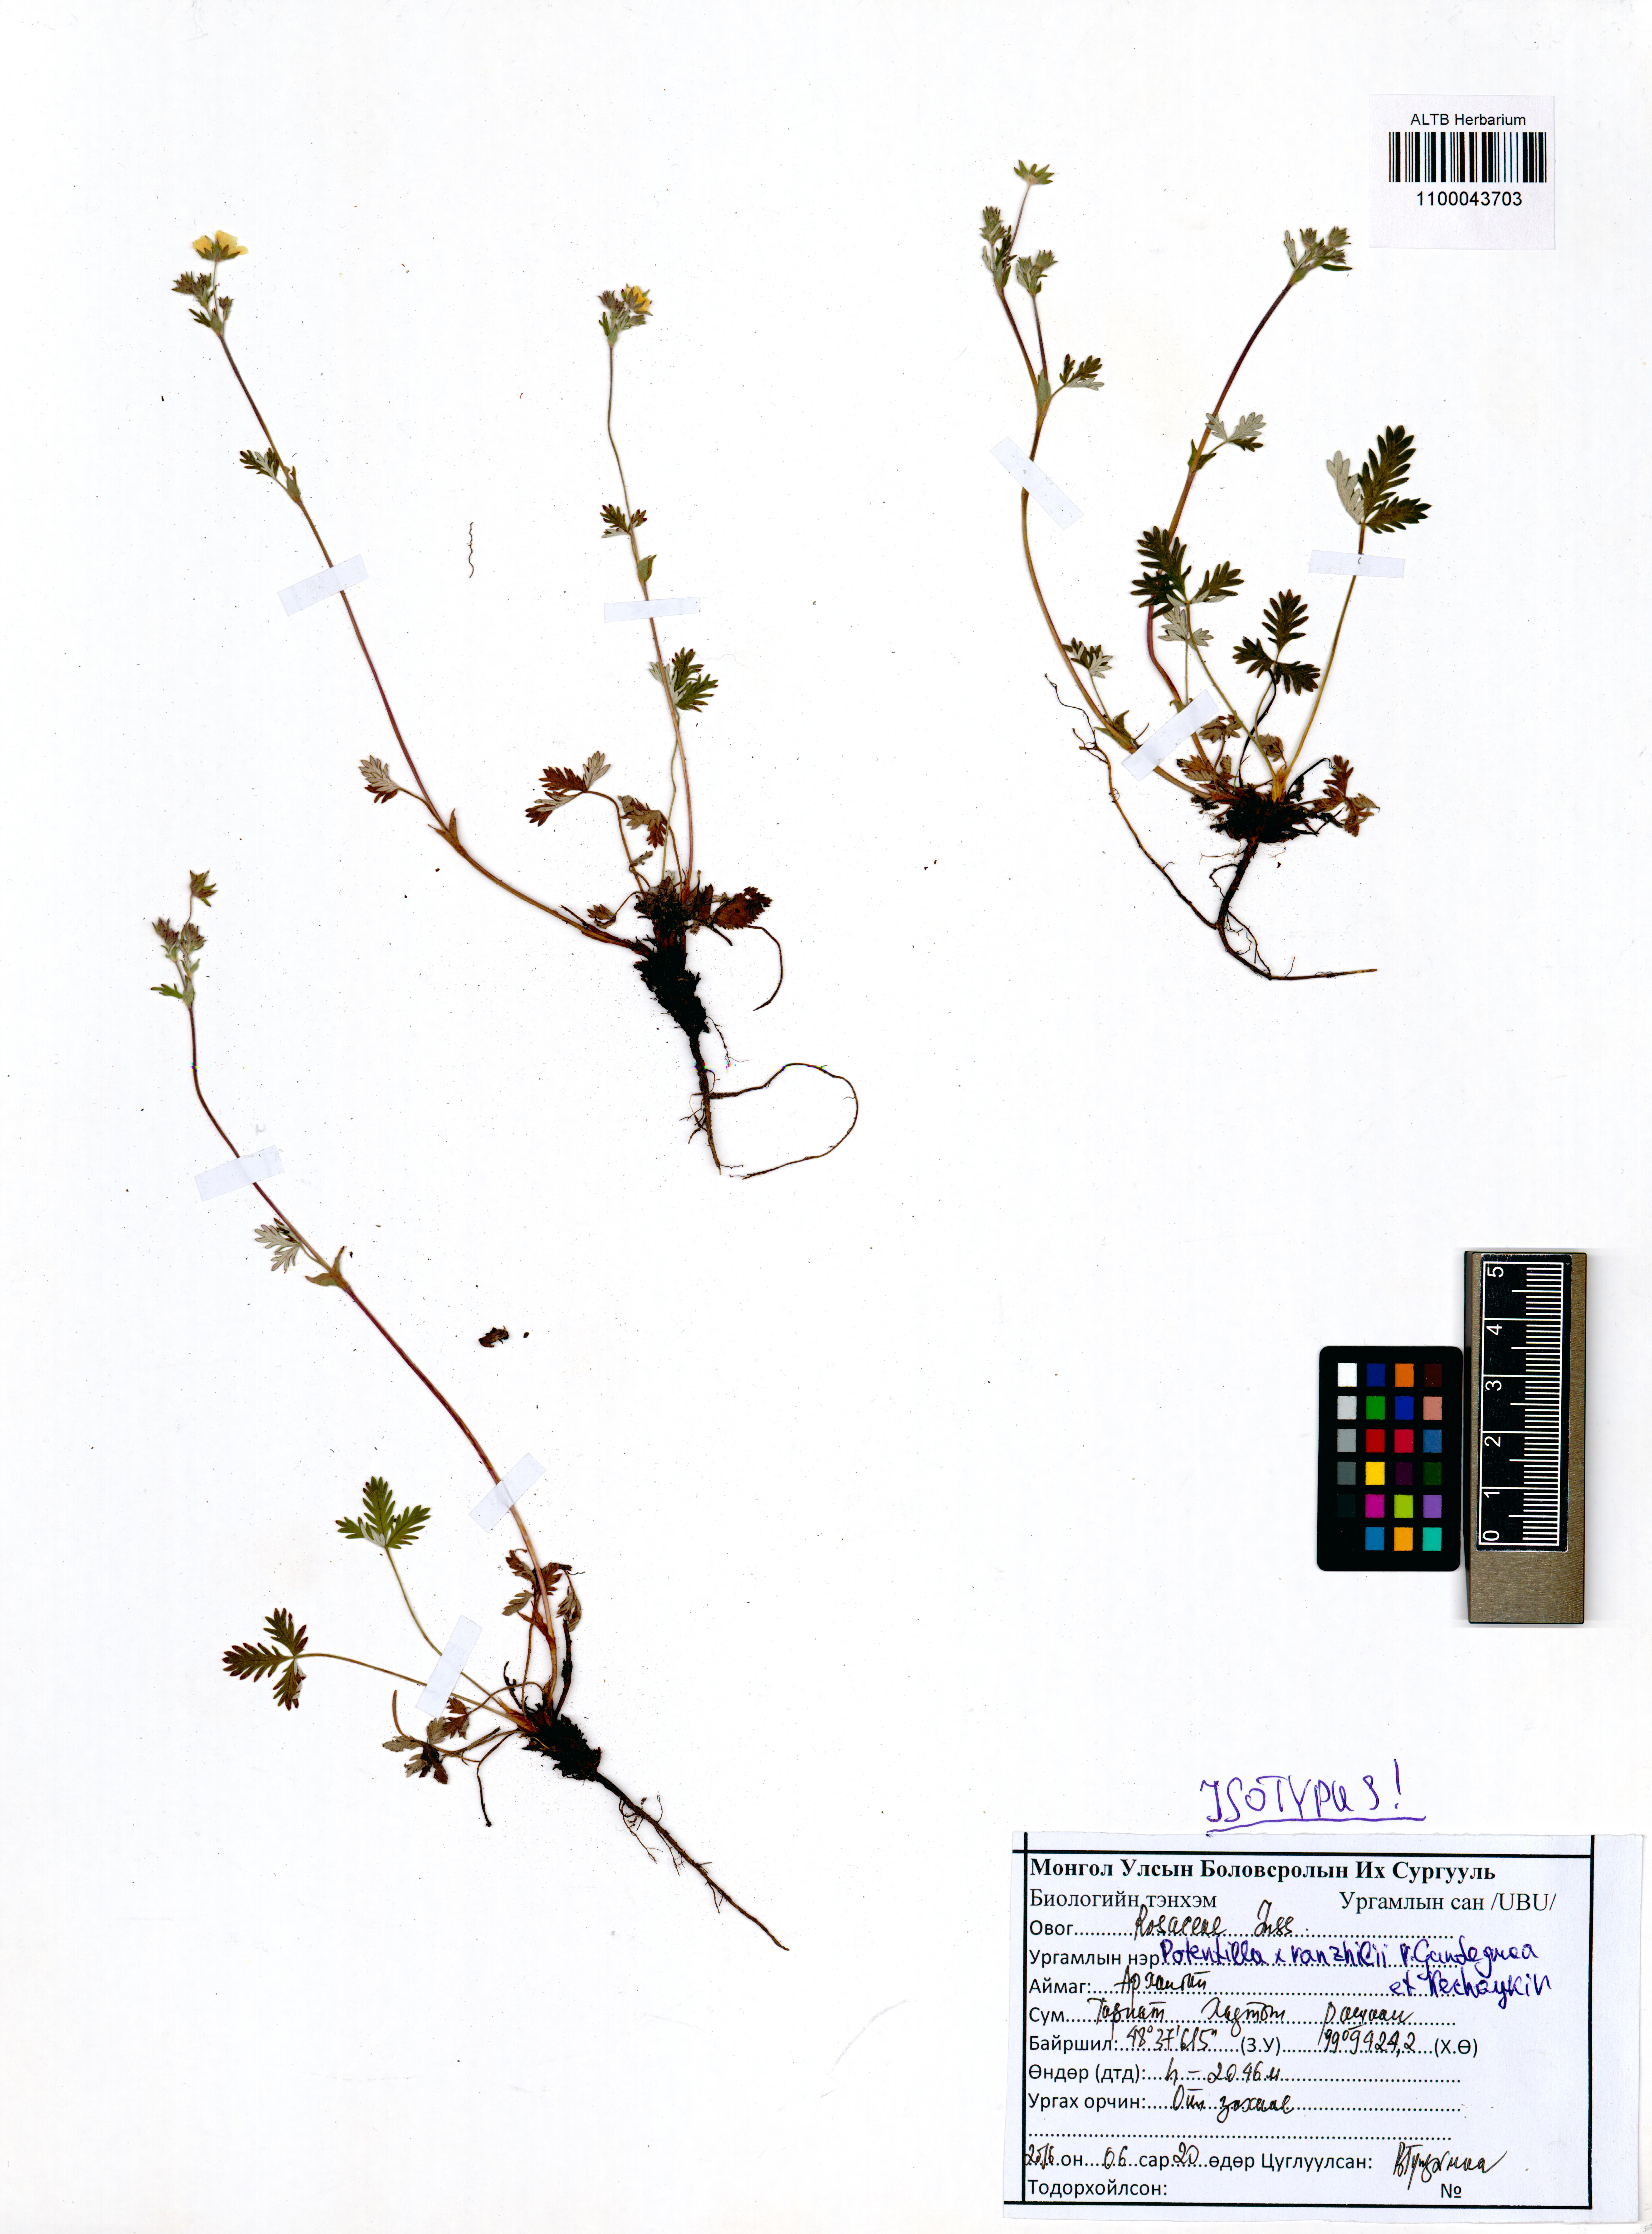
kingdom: Plantae
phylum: Tracheophyta
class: Magnoliopsida
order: Rosales
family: Rosaceae
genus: Potentilla
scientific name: Potentilla vanzhilii
